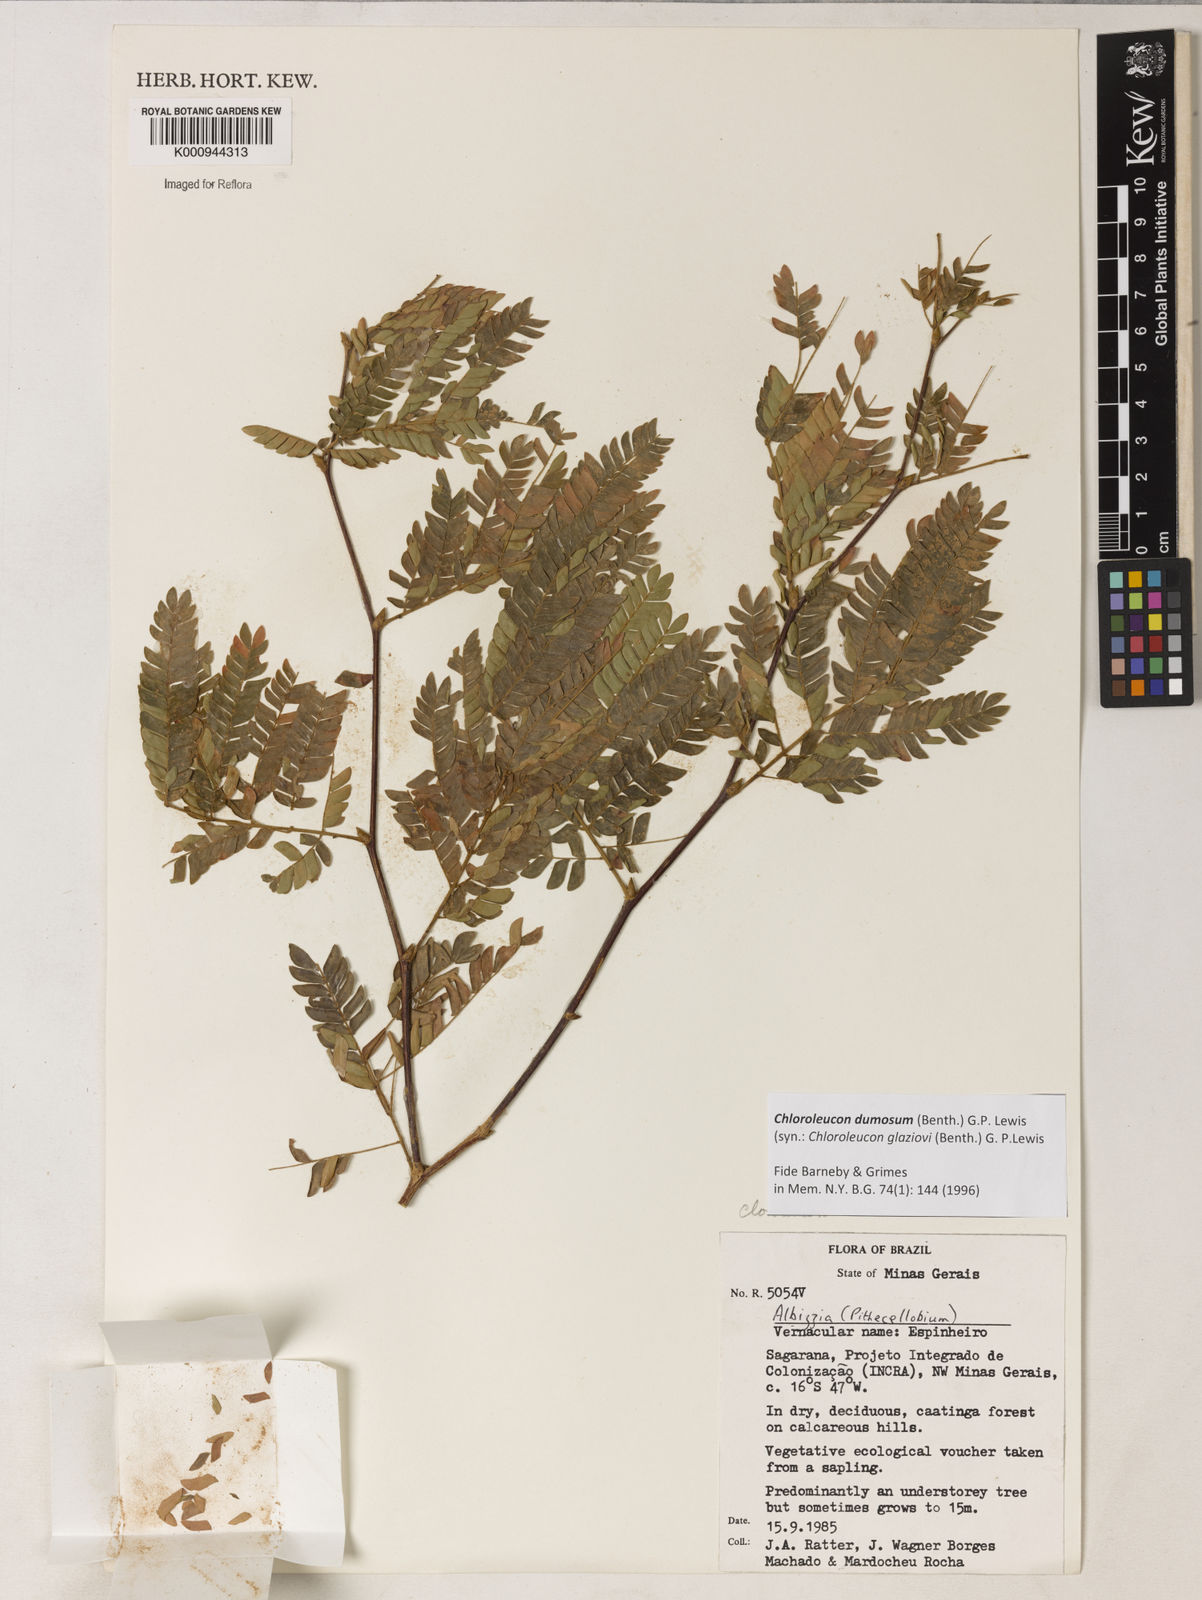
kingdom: Plantae
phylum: Tracheophyta
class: Magnoliopsida
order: Fabales
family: Fabaceae
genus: Inga
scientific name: Inga stenoptera
